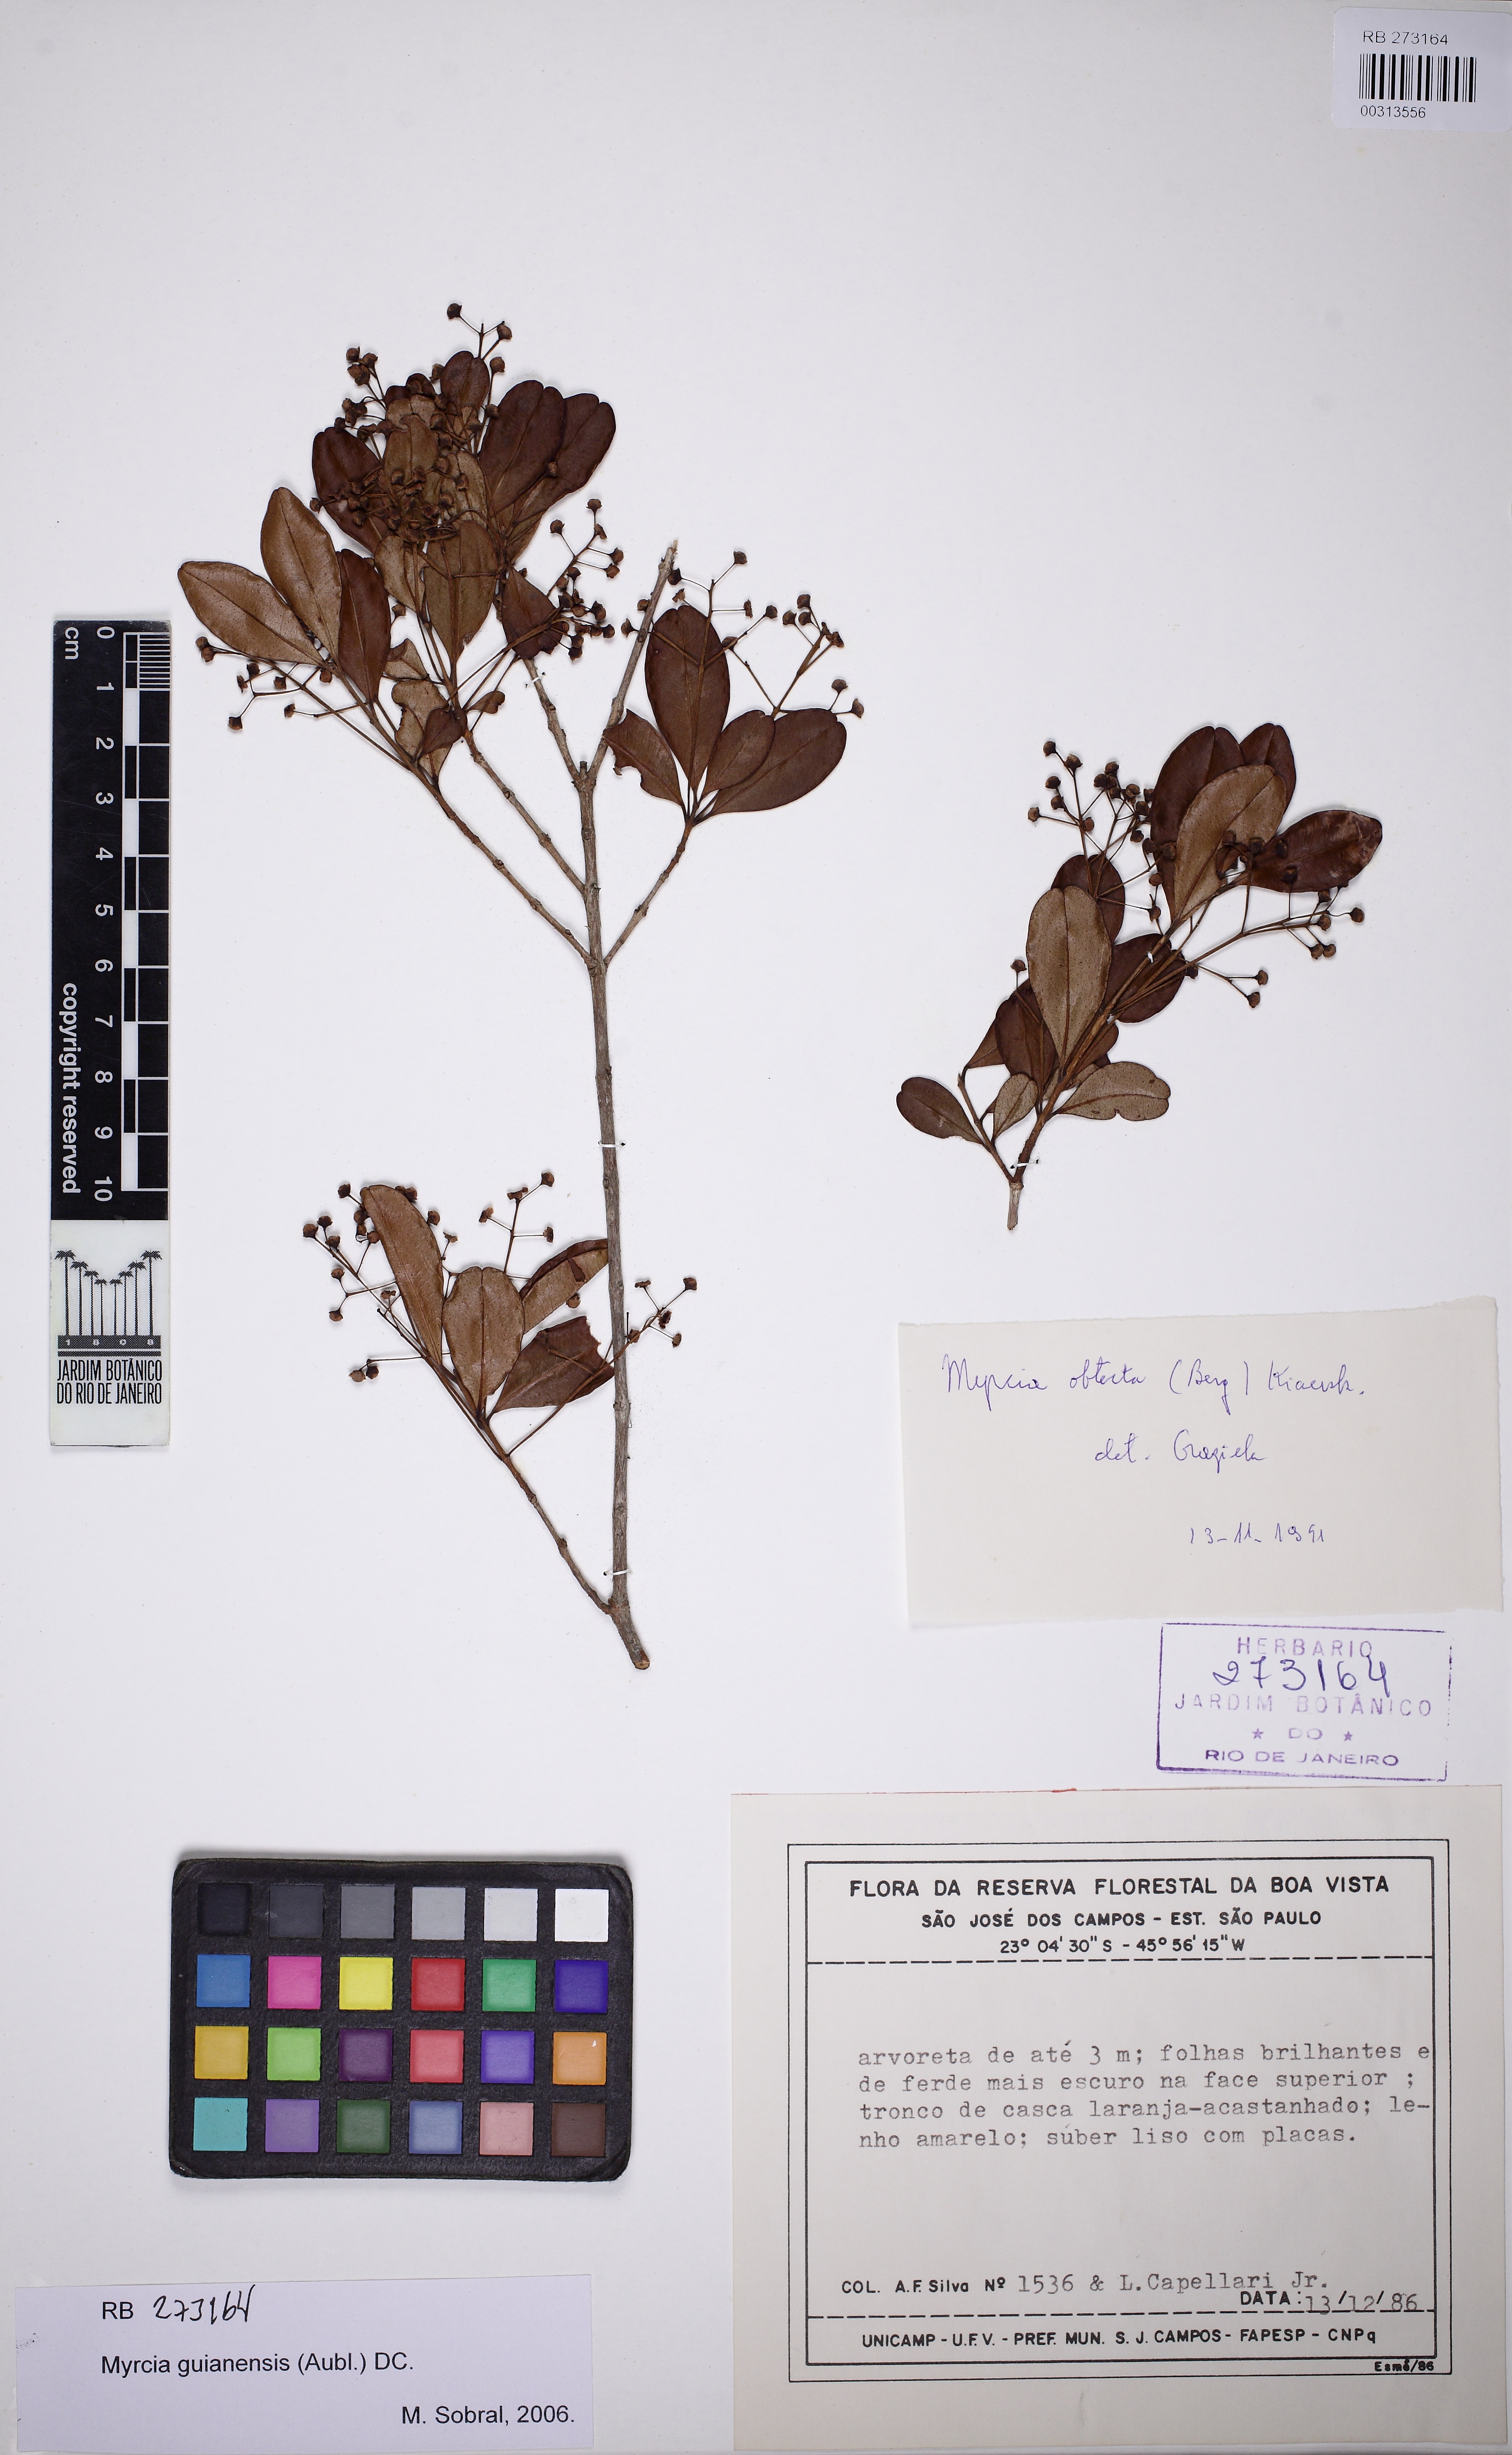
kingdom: Plantae
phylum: Tracheophyta
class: Magnoliopsida
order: Myrtales
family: Myrtaceae
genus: Myrcia
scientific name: Myrcia guianensis
